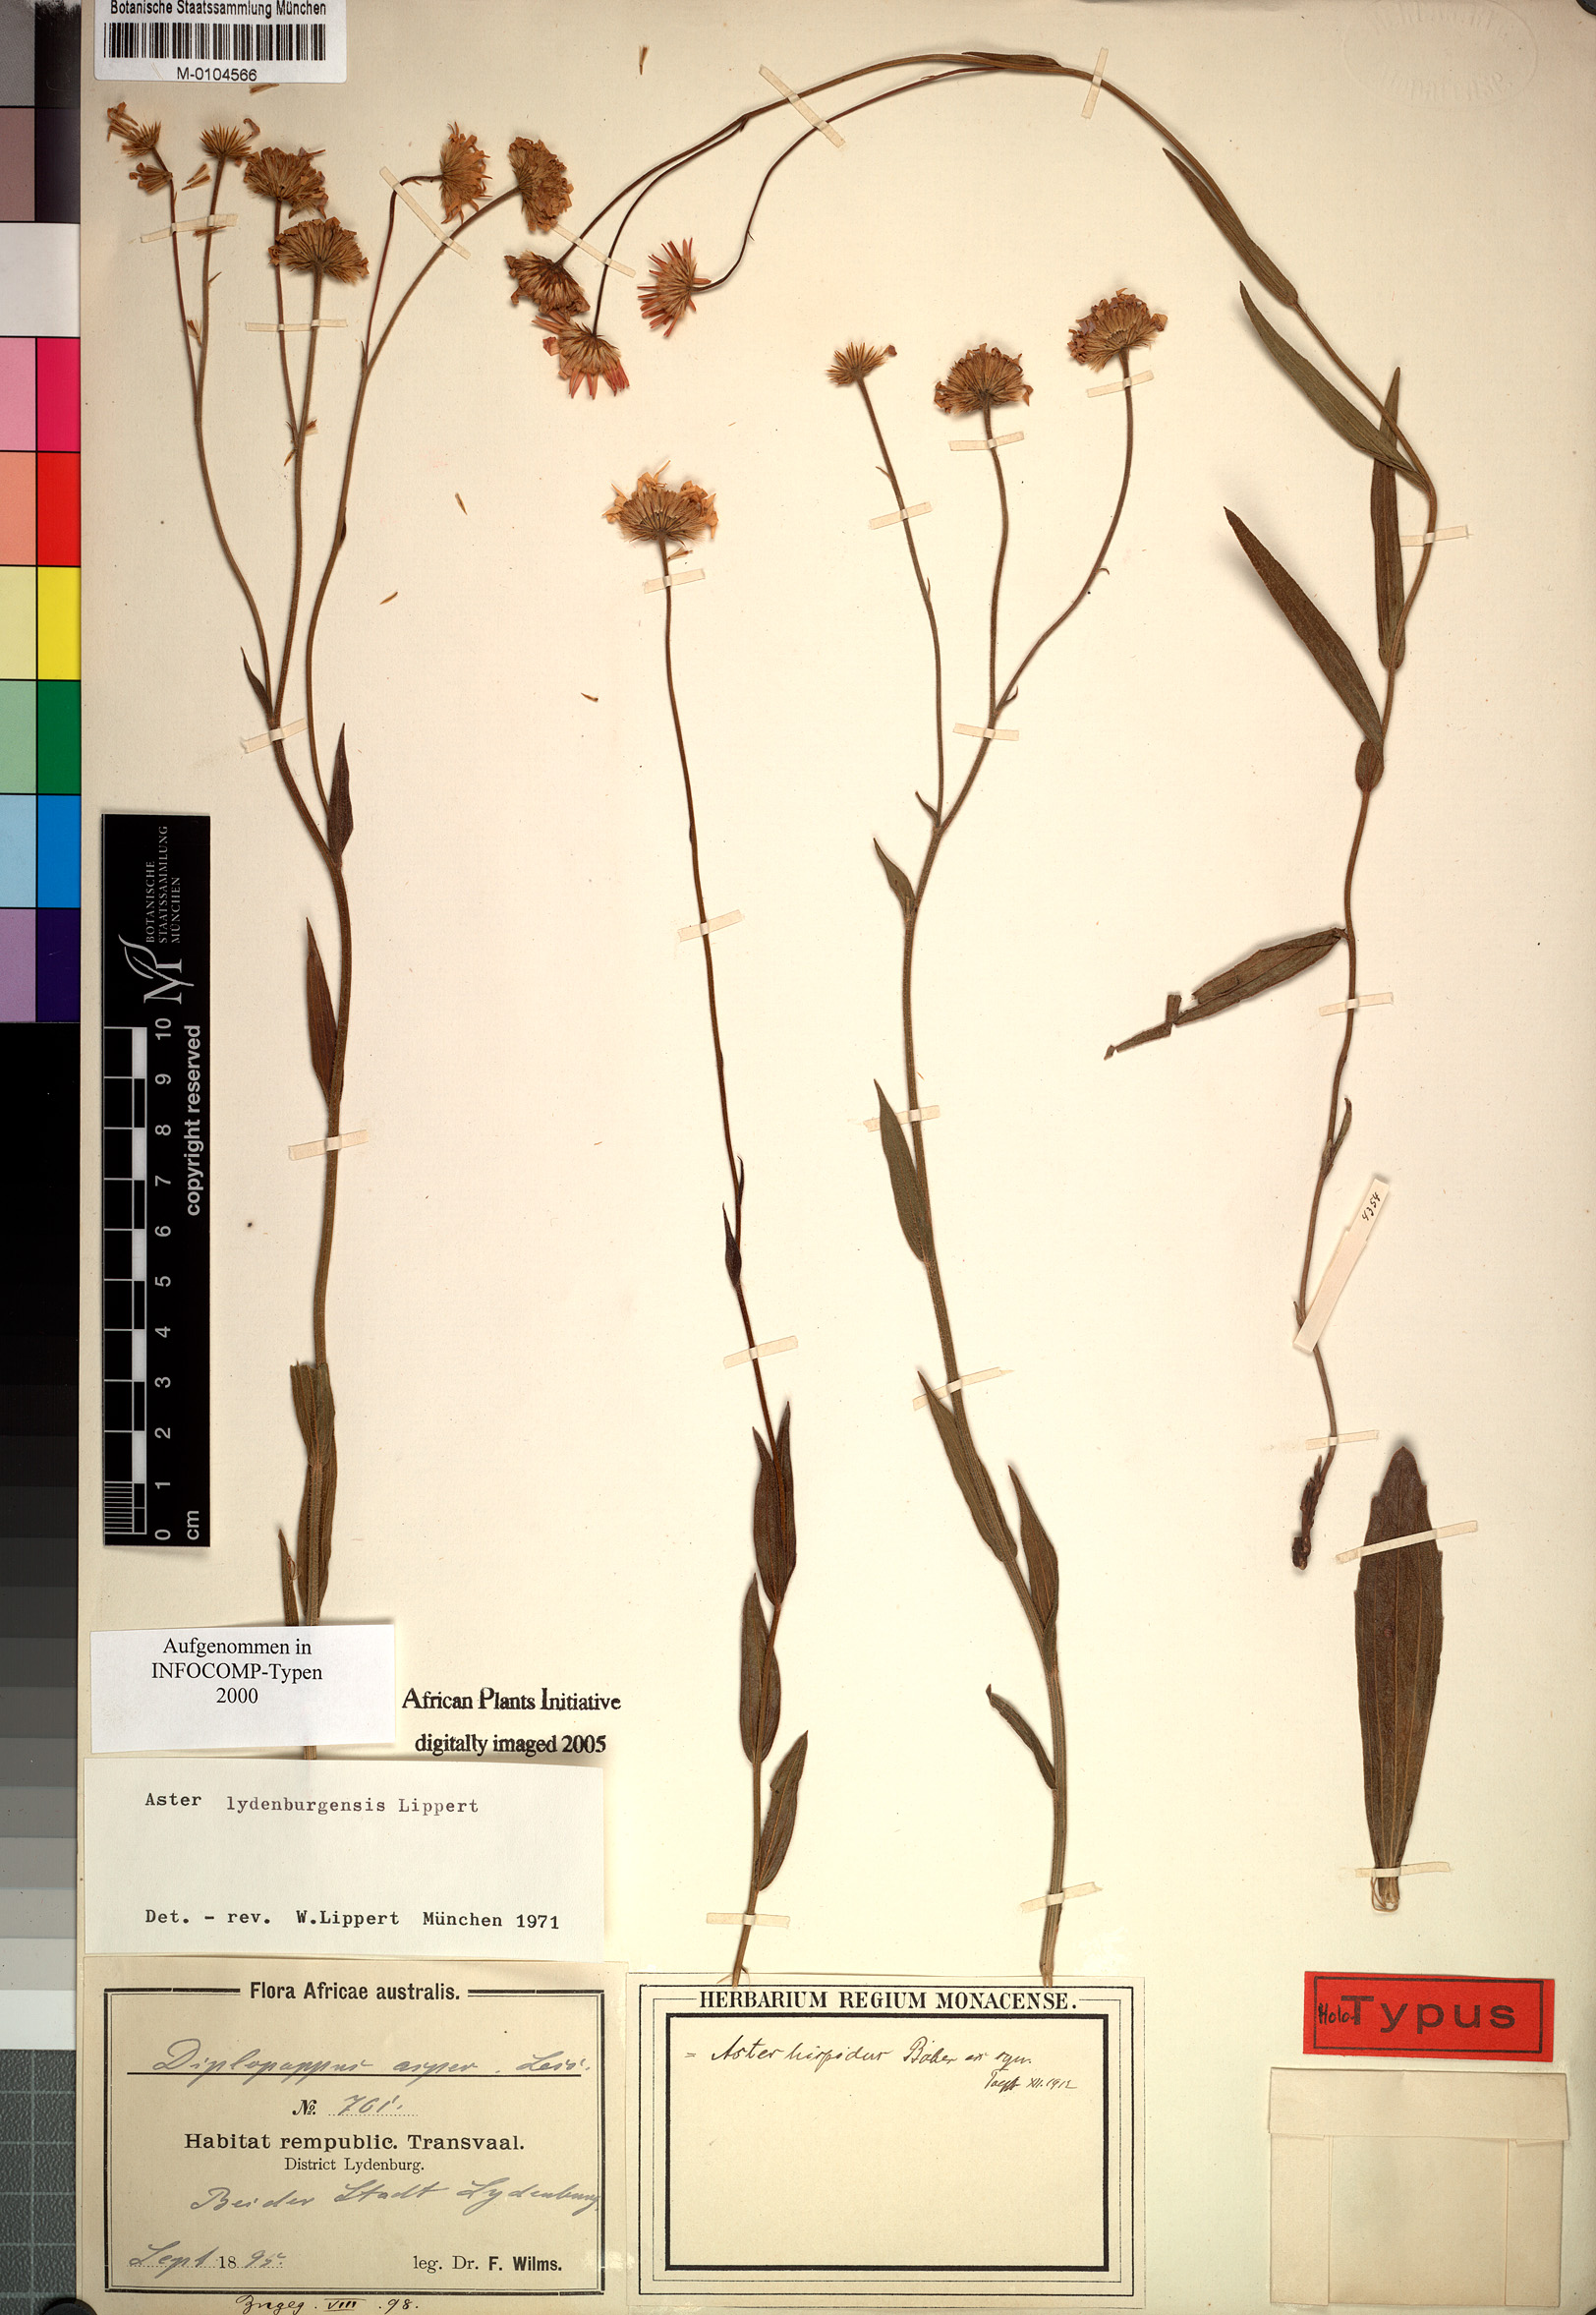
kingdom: Plantae
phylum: Tracheophyta
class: Magnoliopsida
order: Asterales
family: Asteraceae
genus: Afroaster
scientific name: Afroaster lydenburgensis
